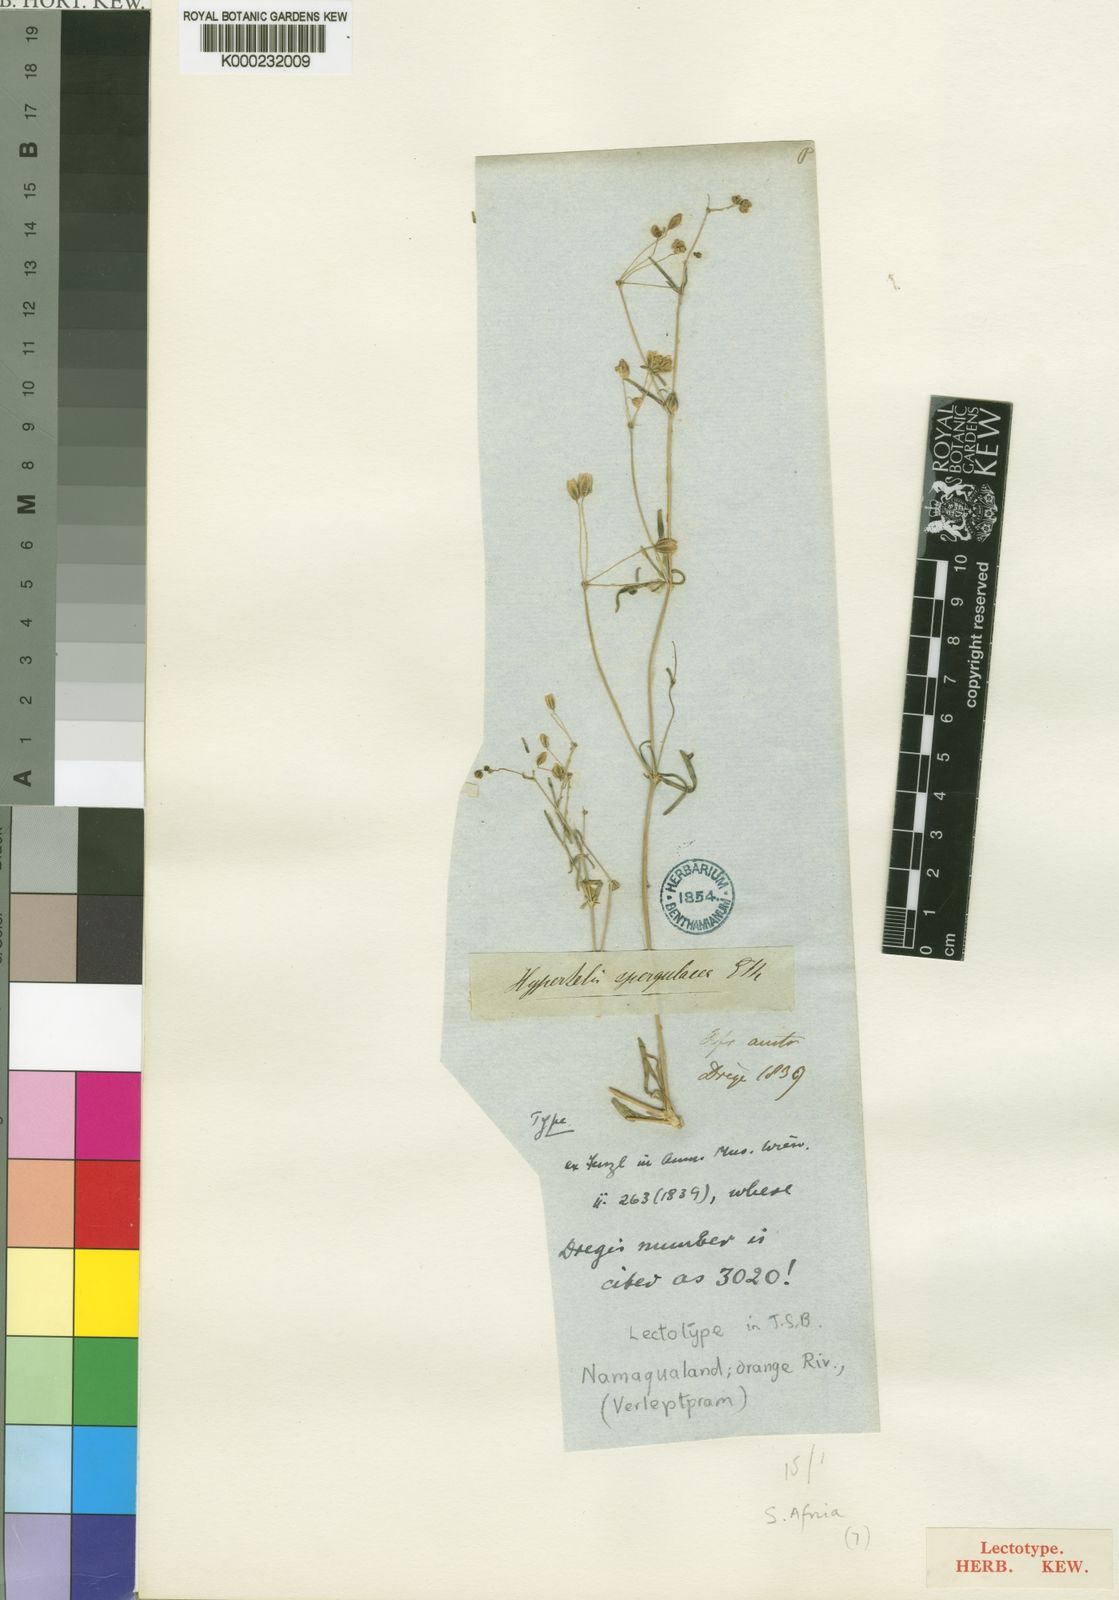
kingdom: Plantae
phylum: Tracheophyta
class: Magnoliopsida
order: Caryophyllales
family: Molluginaceae
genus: Hypertelis
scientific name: Hypertelis spergulacea
